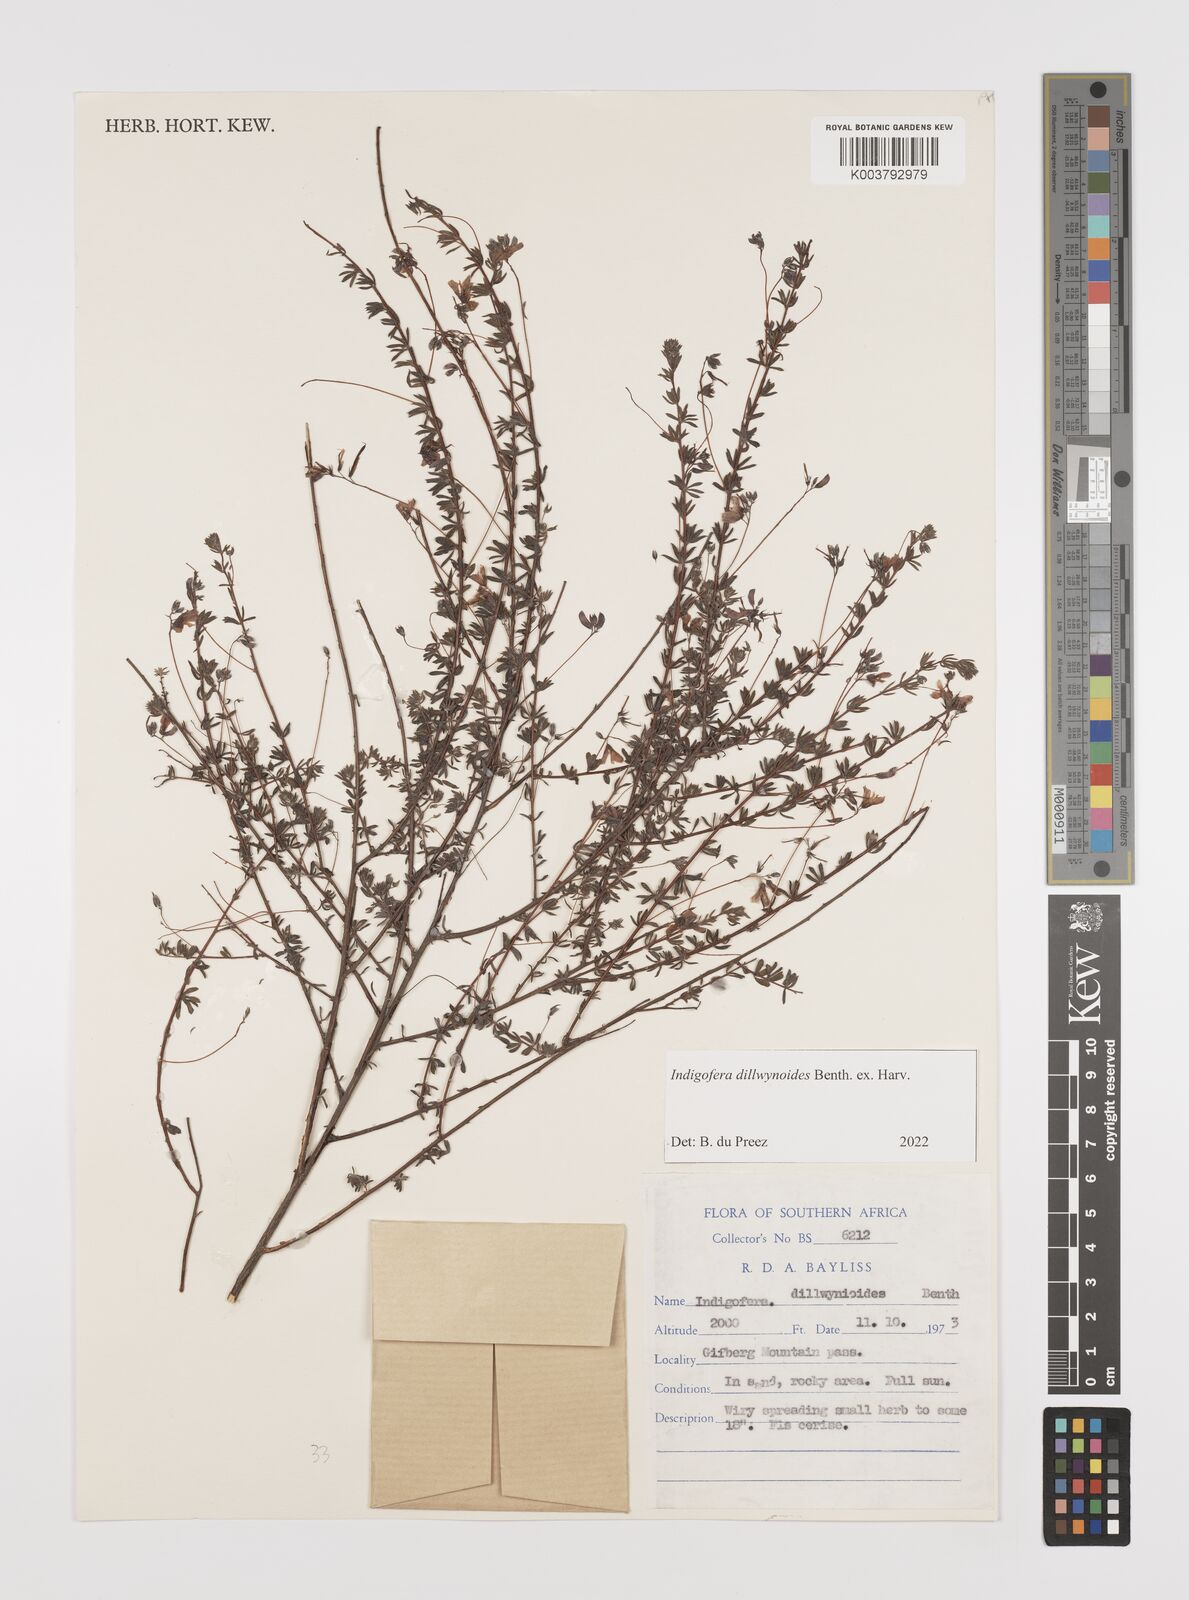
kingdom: Plantae
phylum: Tracheophyta
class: Magnoliopsida
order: Fabales
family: Fabaceae
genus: Indigofera
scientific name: Indigofera dillwynioides
